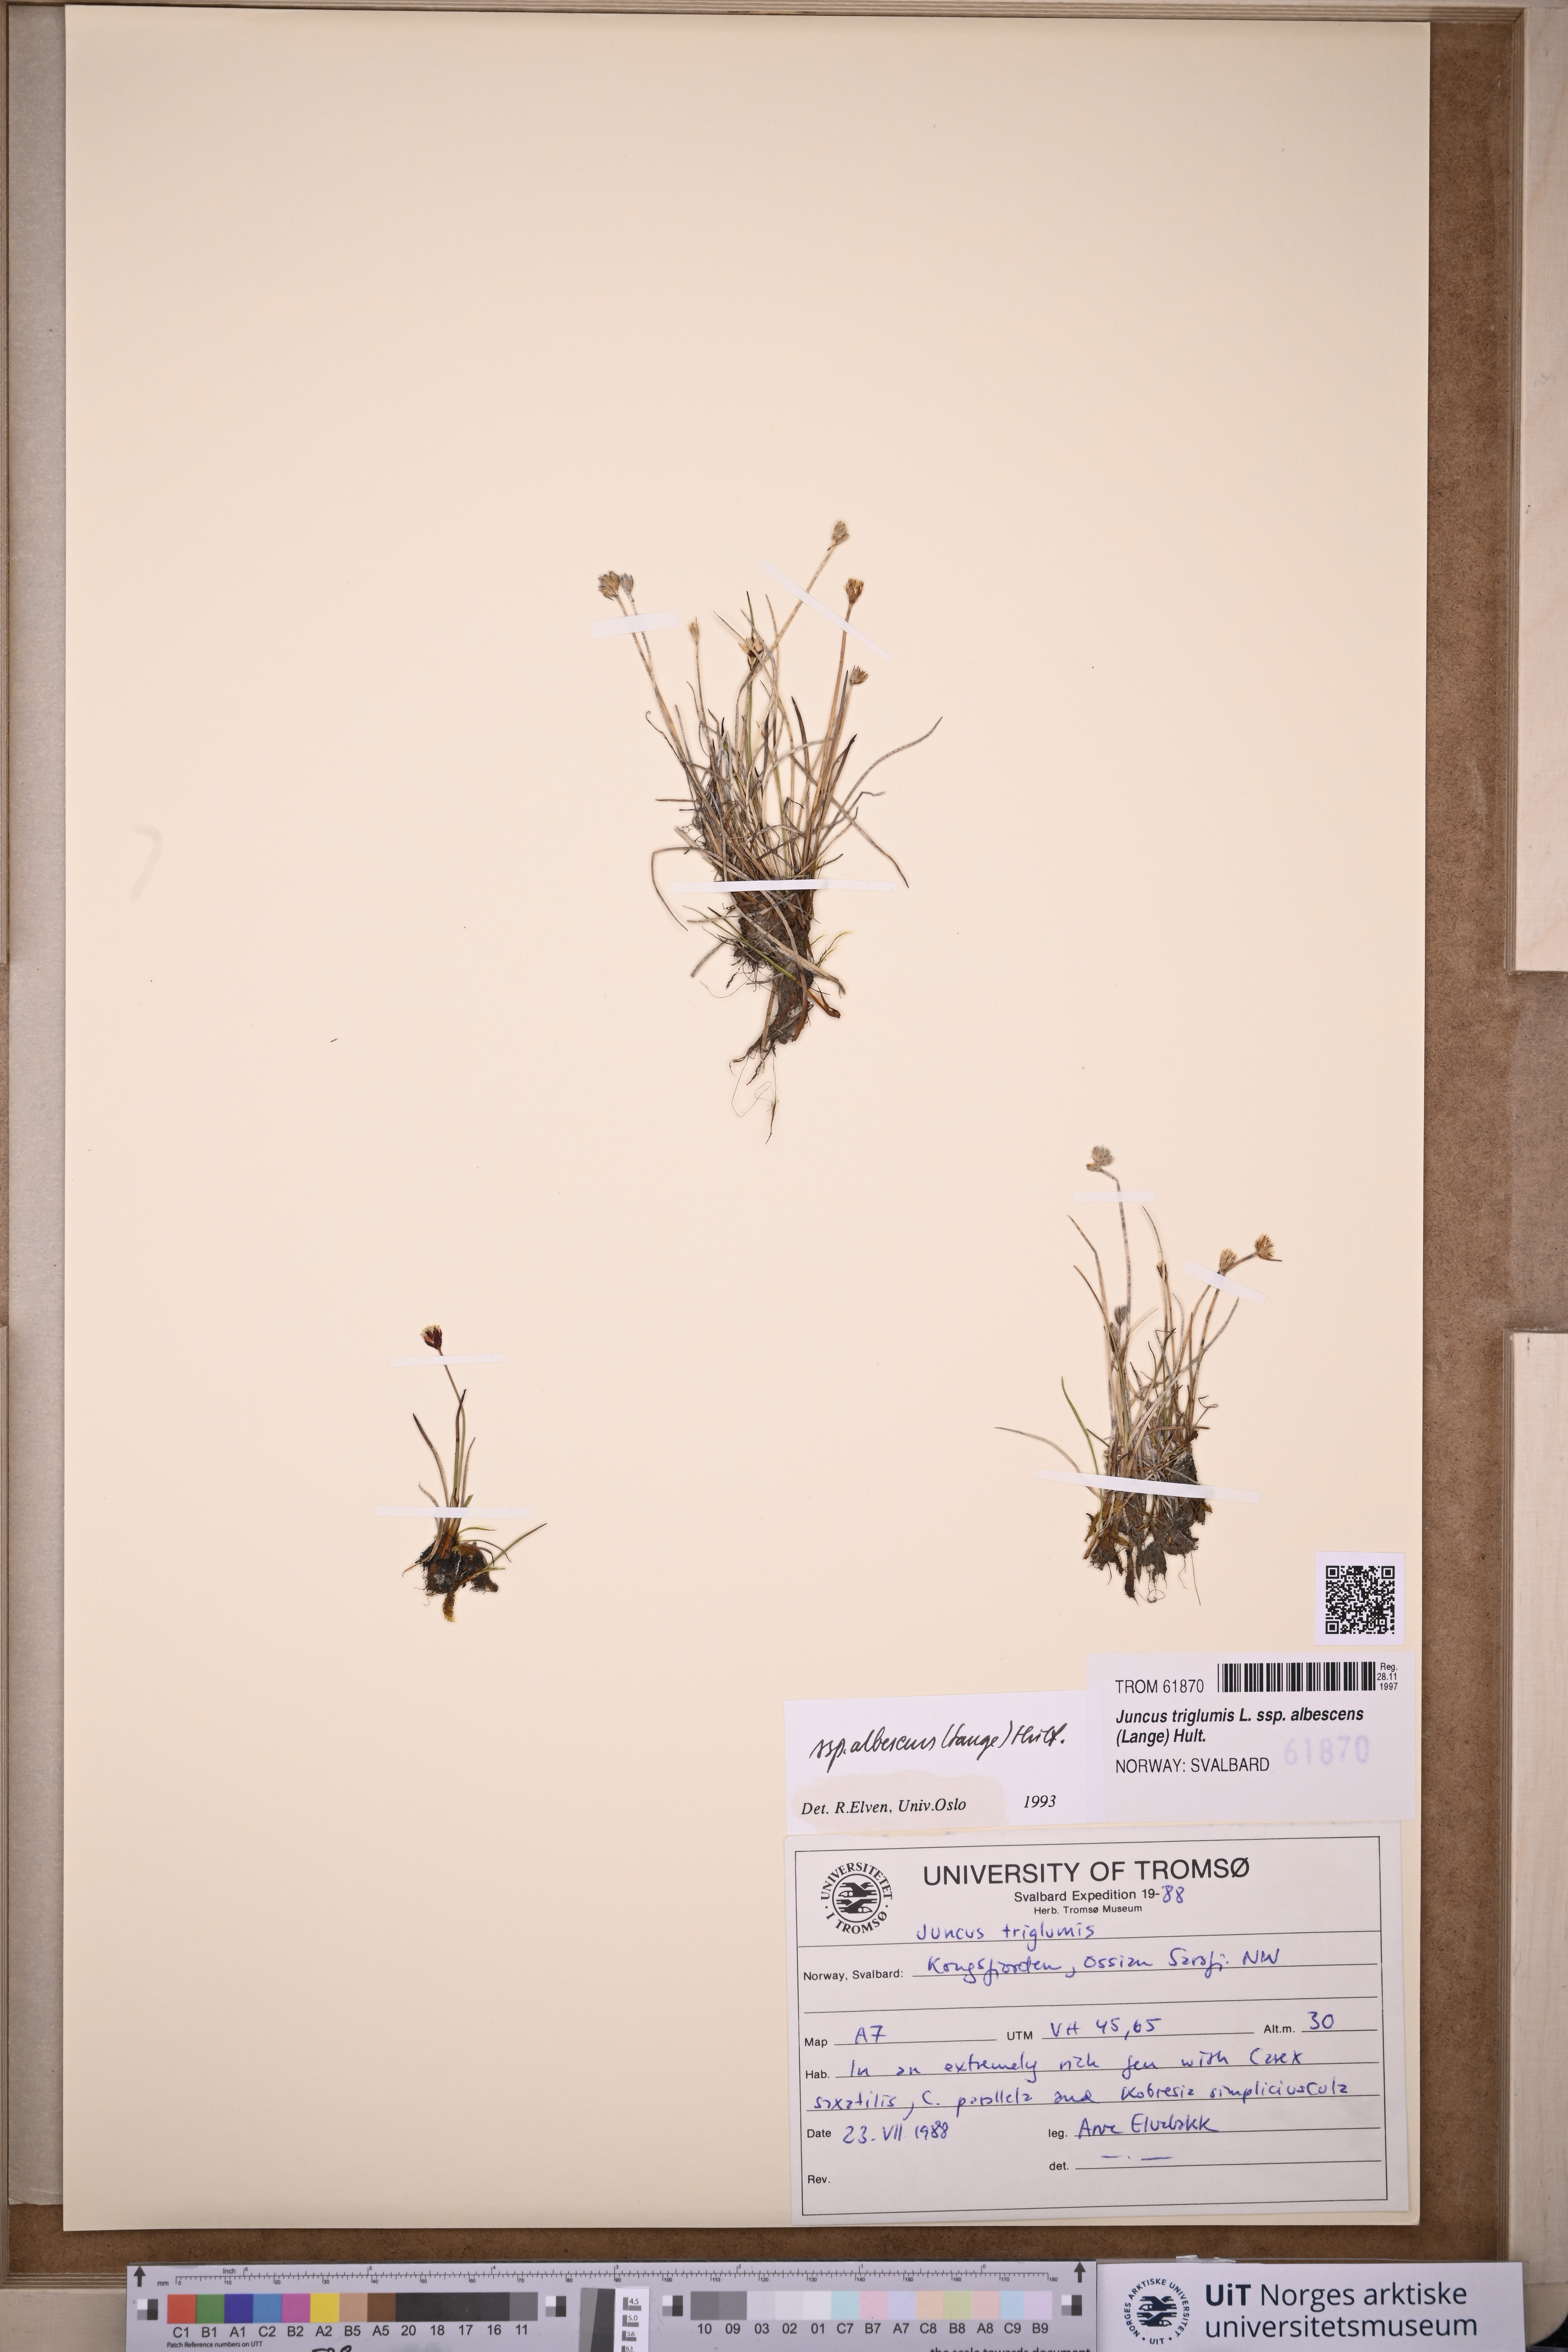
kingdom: Plantae
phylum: Tracheophyta
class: Liliopsida
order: Poales
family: Juncaceae
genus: Juncus
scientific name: Juncus albescens
